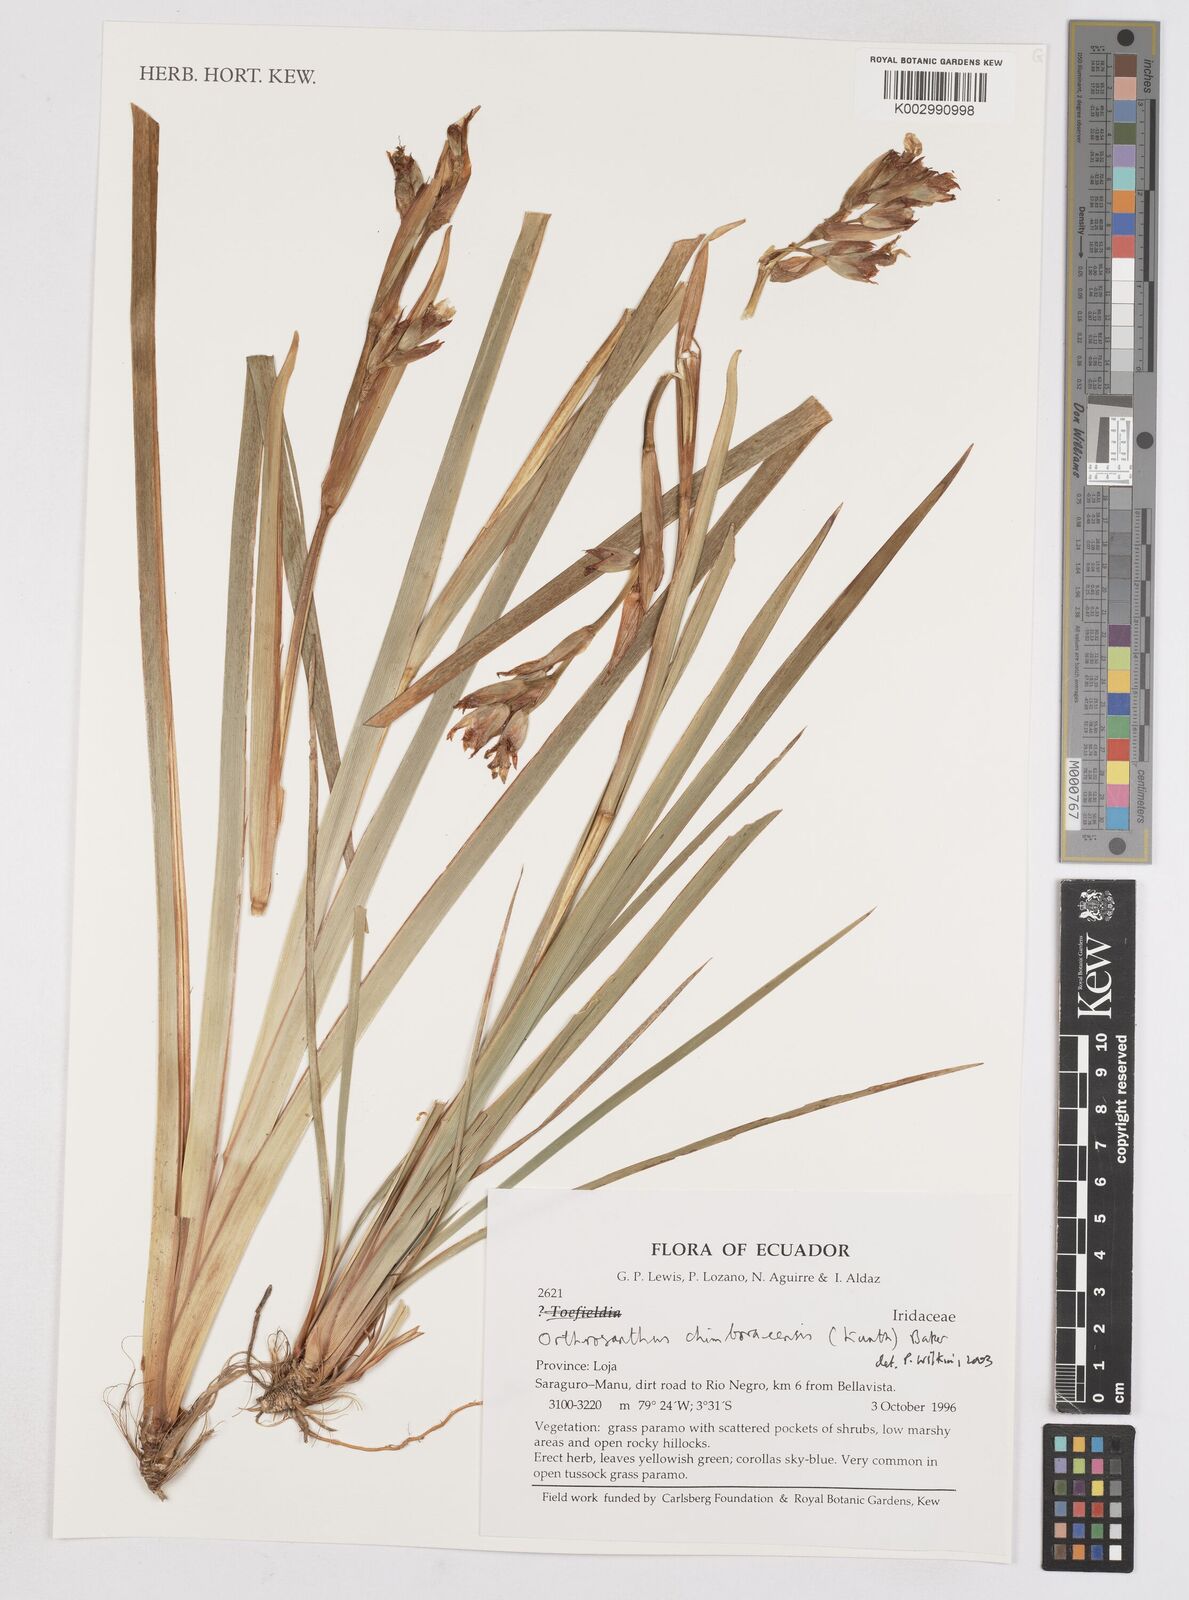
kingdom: Plantae
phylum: Tracheophyta
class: Liliopsida
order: Asparagales
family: Iridaceae
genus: Orthrosanthus
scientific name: Orthrosanthus chimboracensis
